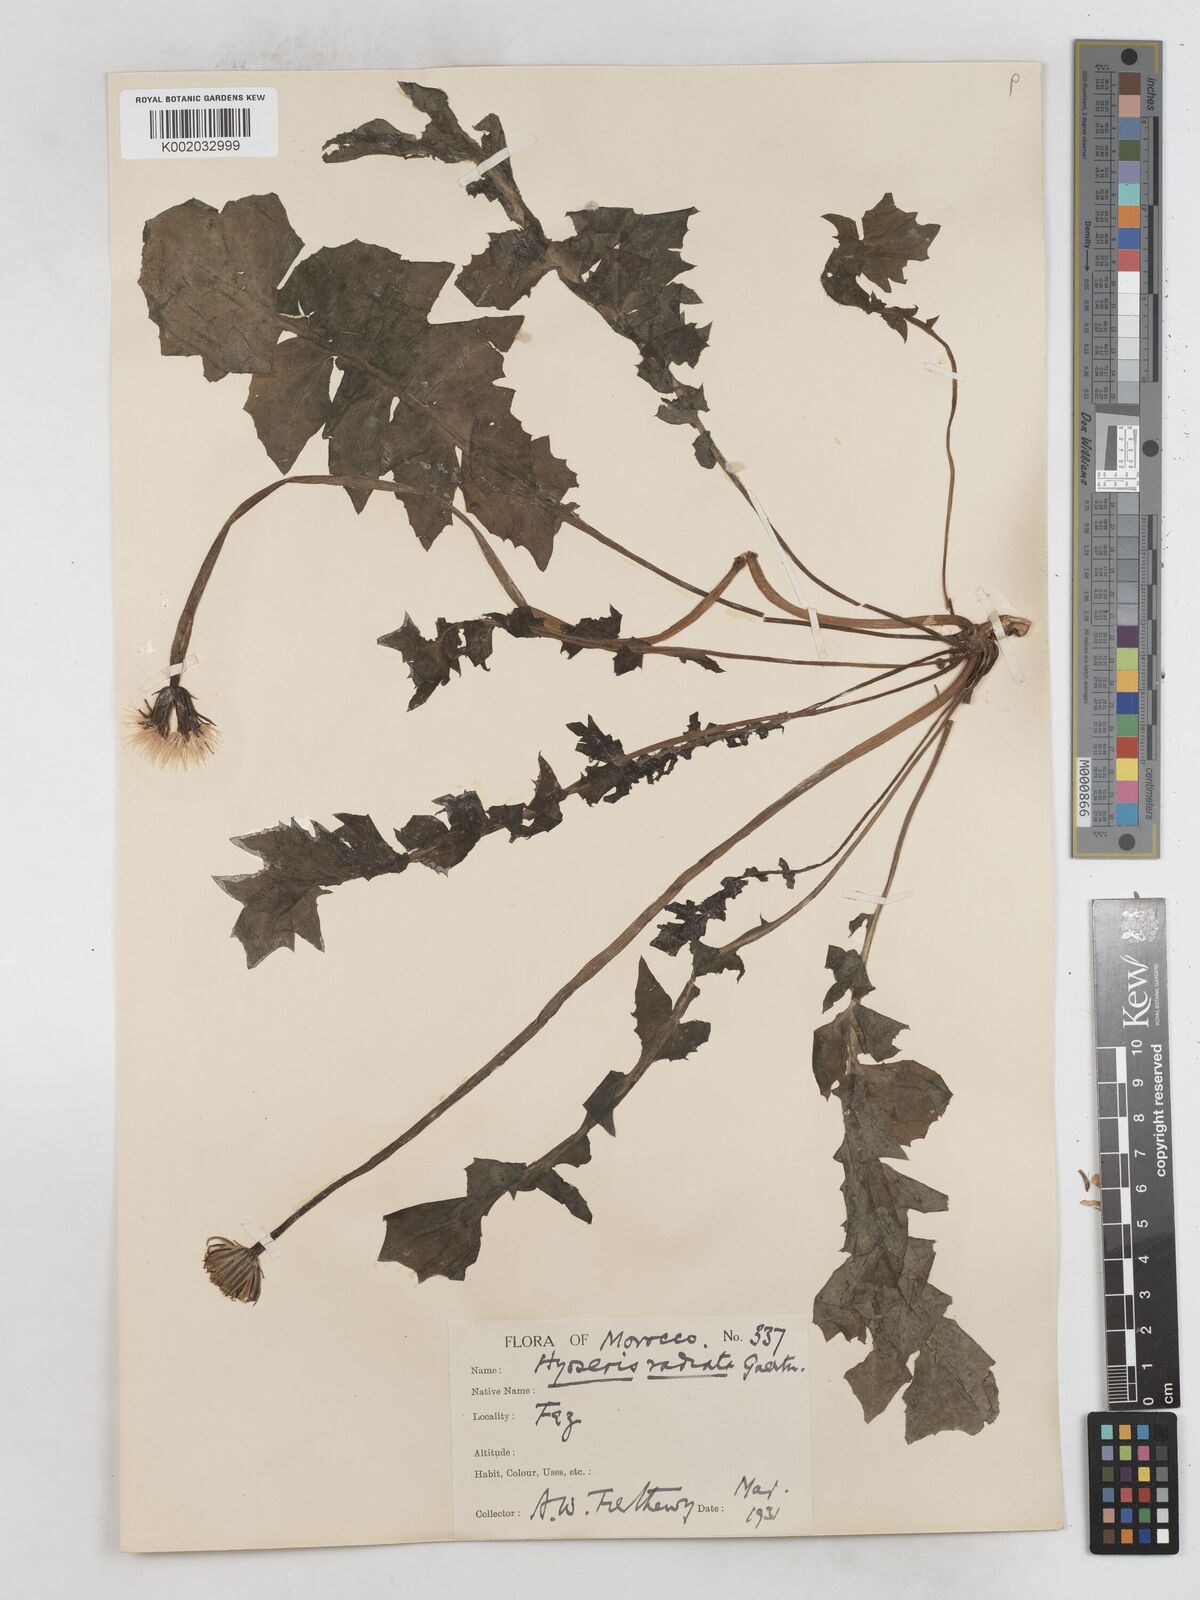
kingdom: Plantae
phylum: Tracheophyta
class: Magnoliopsida
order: Asterales
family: Asteraceae
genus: Hyoseris
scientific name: Hyoseris radiata
